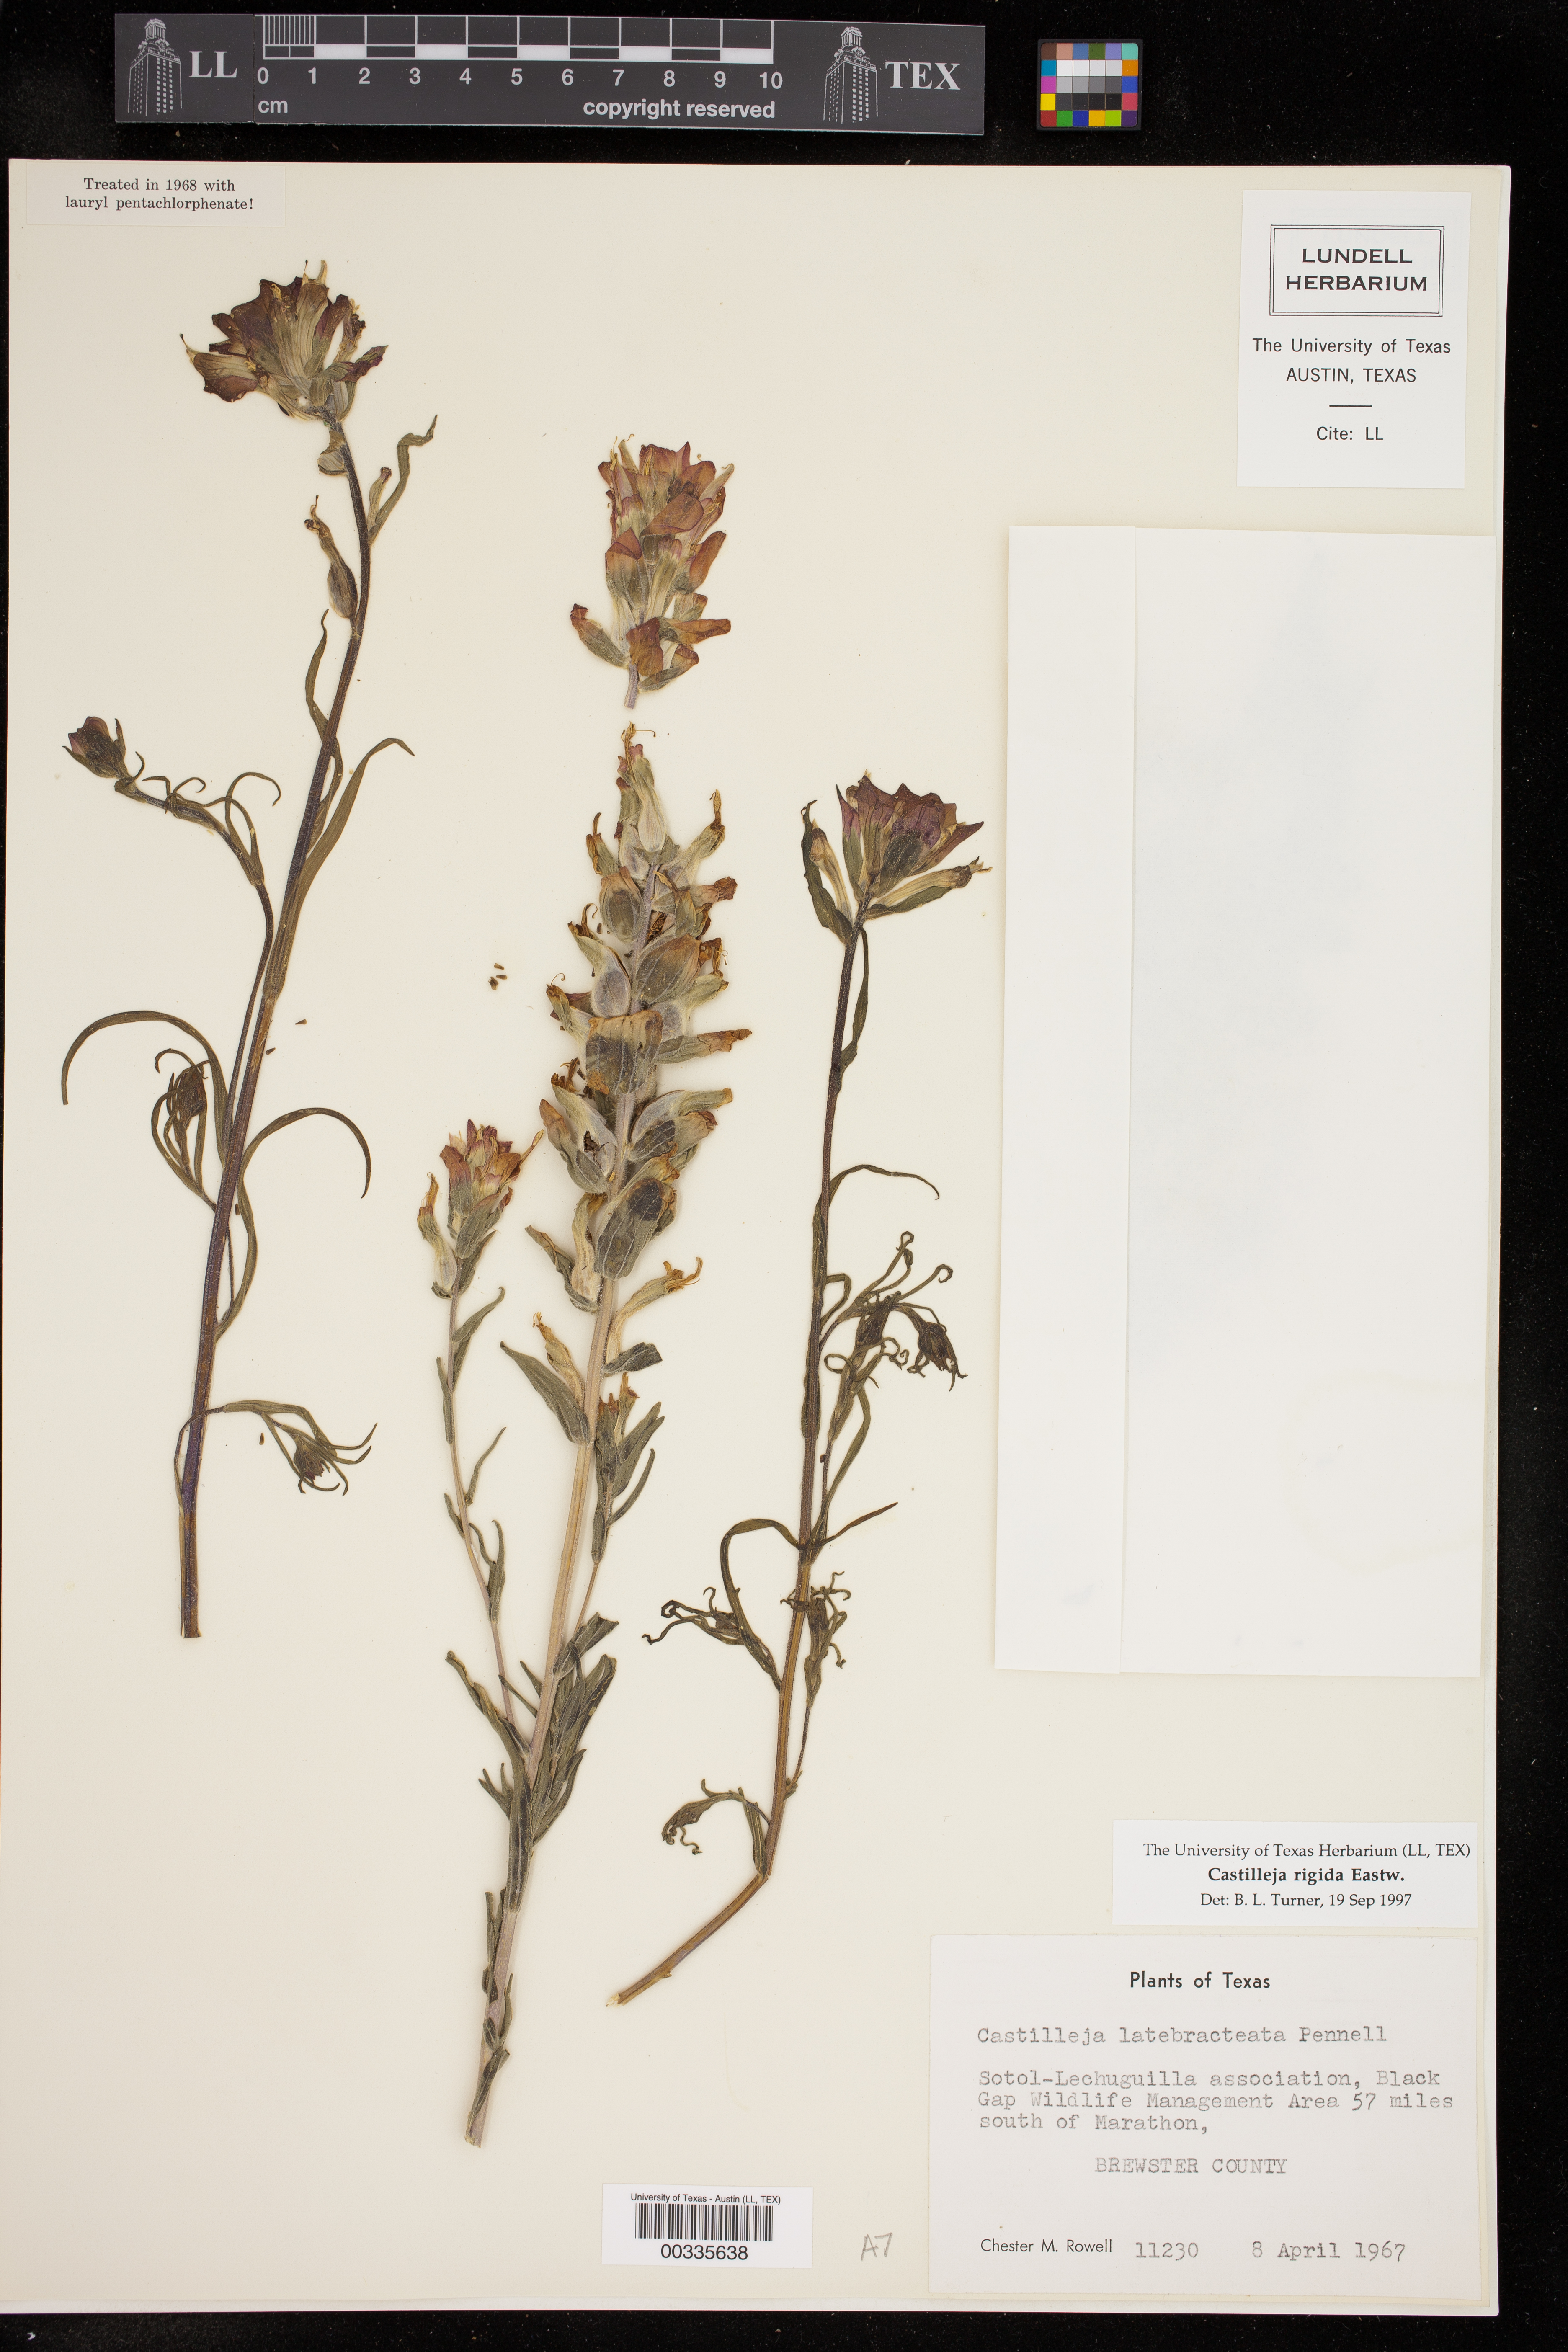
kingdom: Plantae
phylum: Tracheophyta
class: Magnoliopsida
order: Lamiales
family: Orobanchaceae
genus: Castilleja
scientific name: Castilleja rigida
